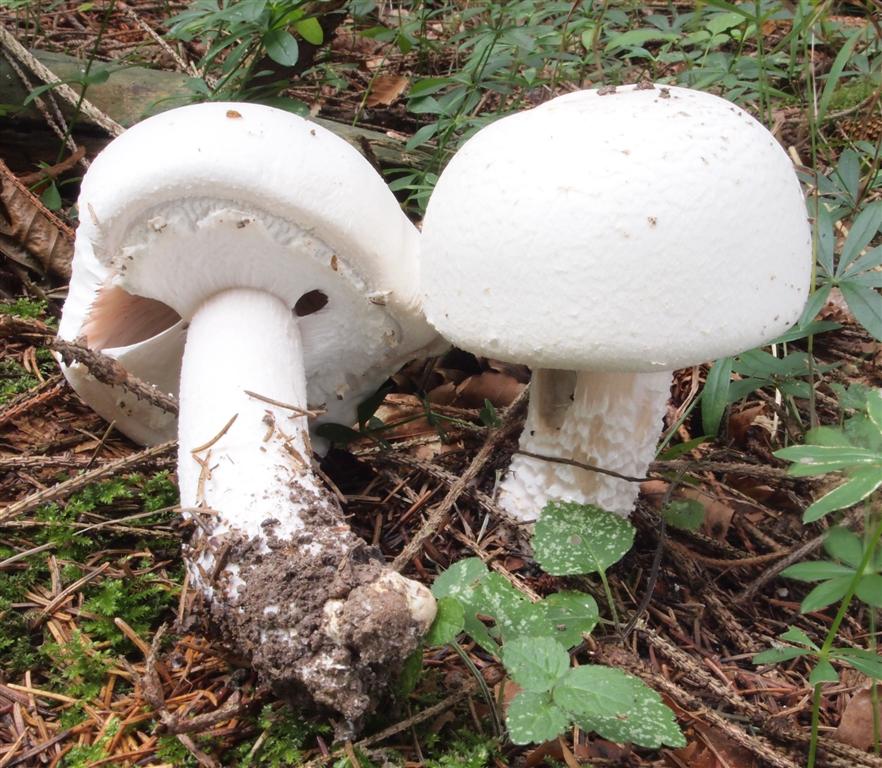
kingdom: Fungi
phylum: Basidiomycota
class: Agaricomycetes
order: Agaricales
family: Agaricaceae
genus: Agaricus
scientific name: Agaricus crocodilinus
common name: landsby-champignon
